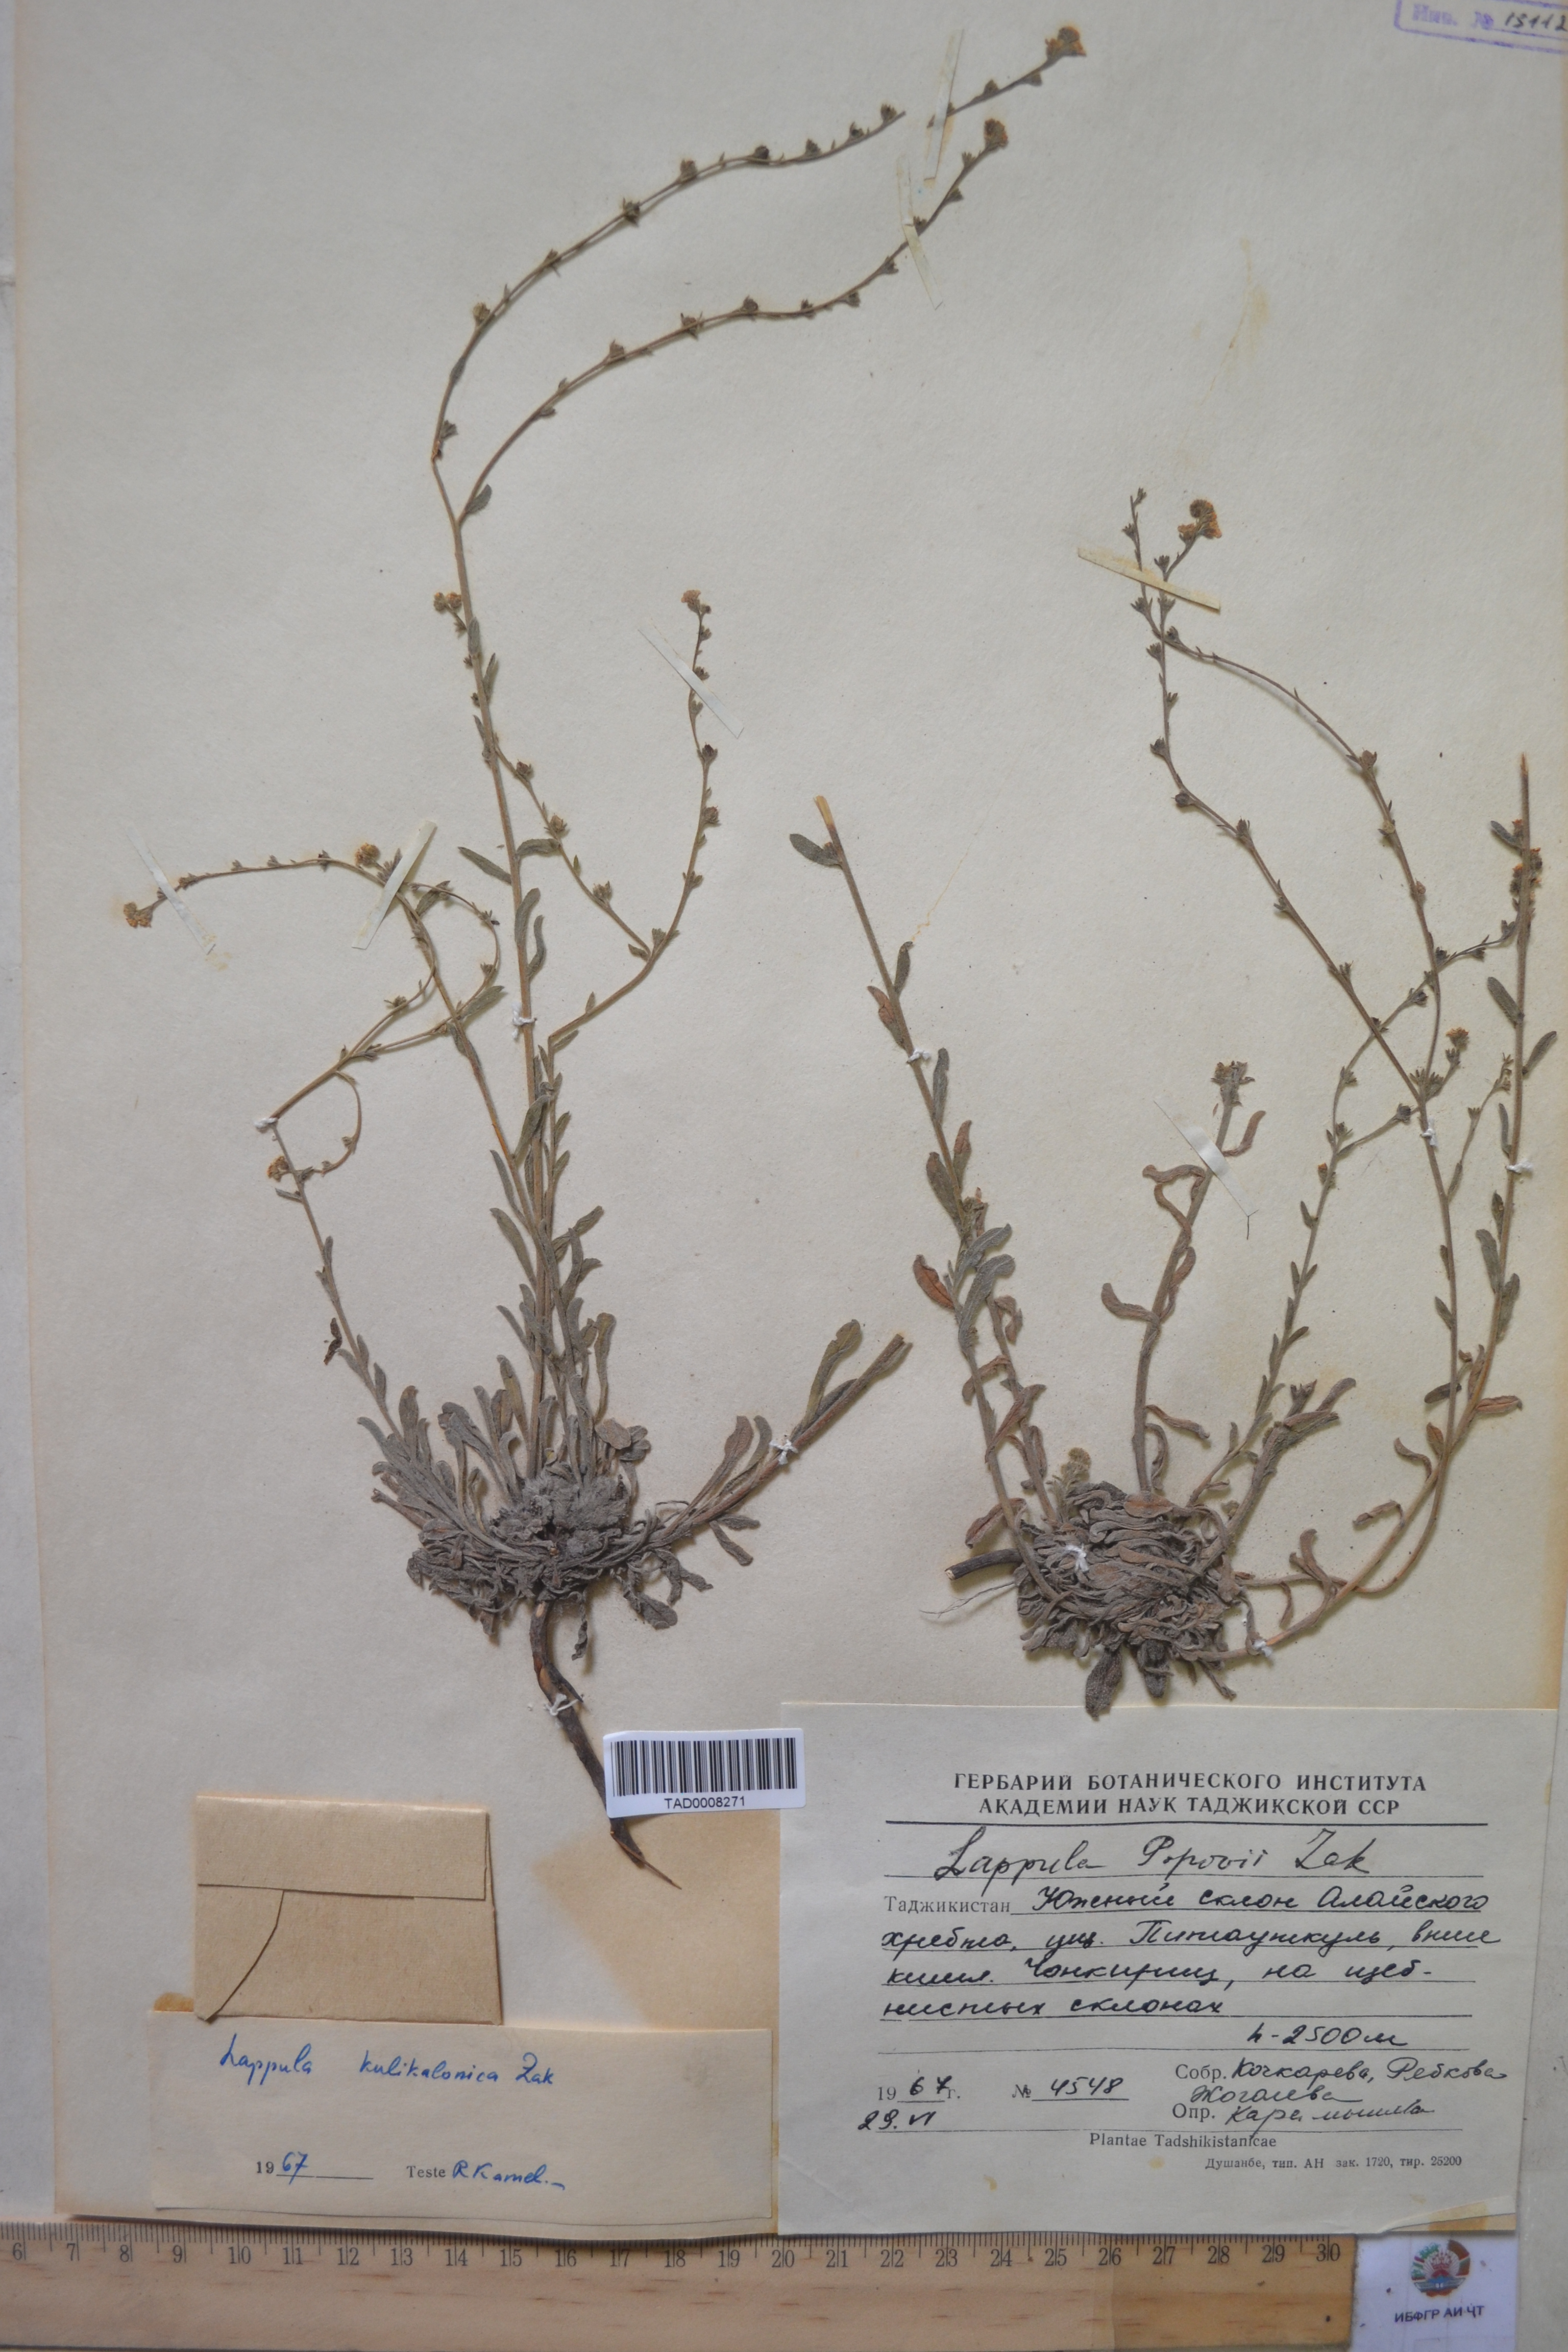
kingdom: Plantae
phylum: Tracheophyta
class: Magnoliopsida
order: Boraginales
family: Boraginaceae
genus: Lappula
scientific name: Lappula popovii
